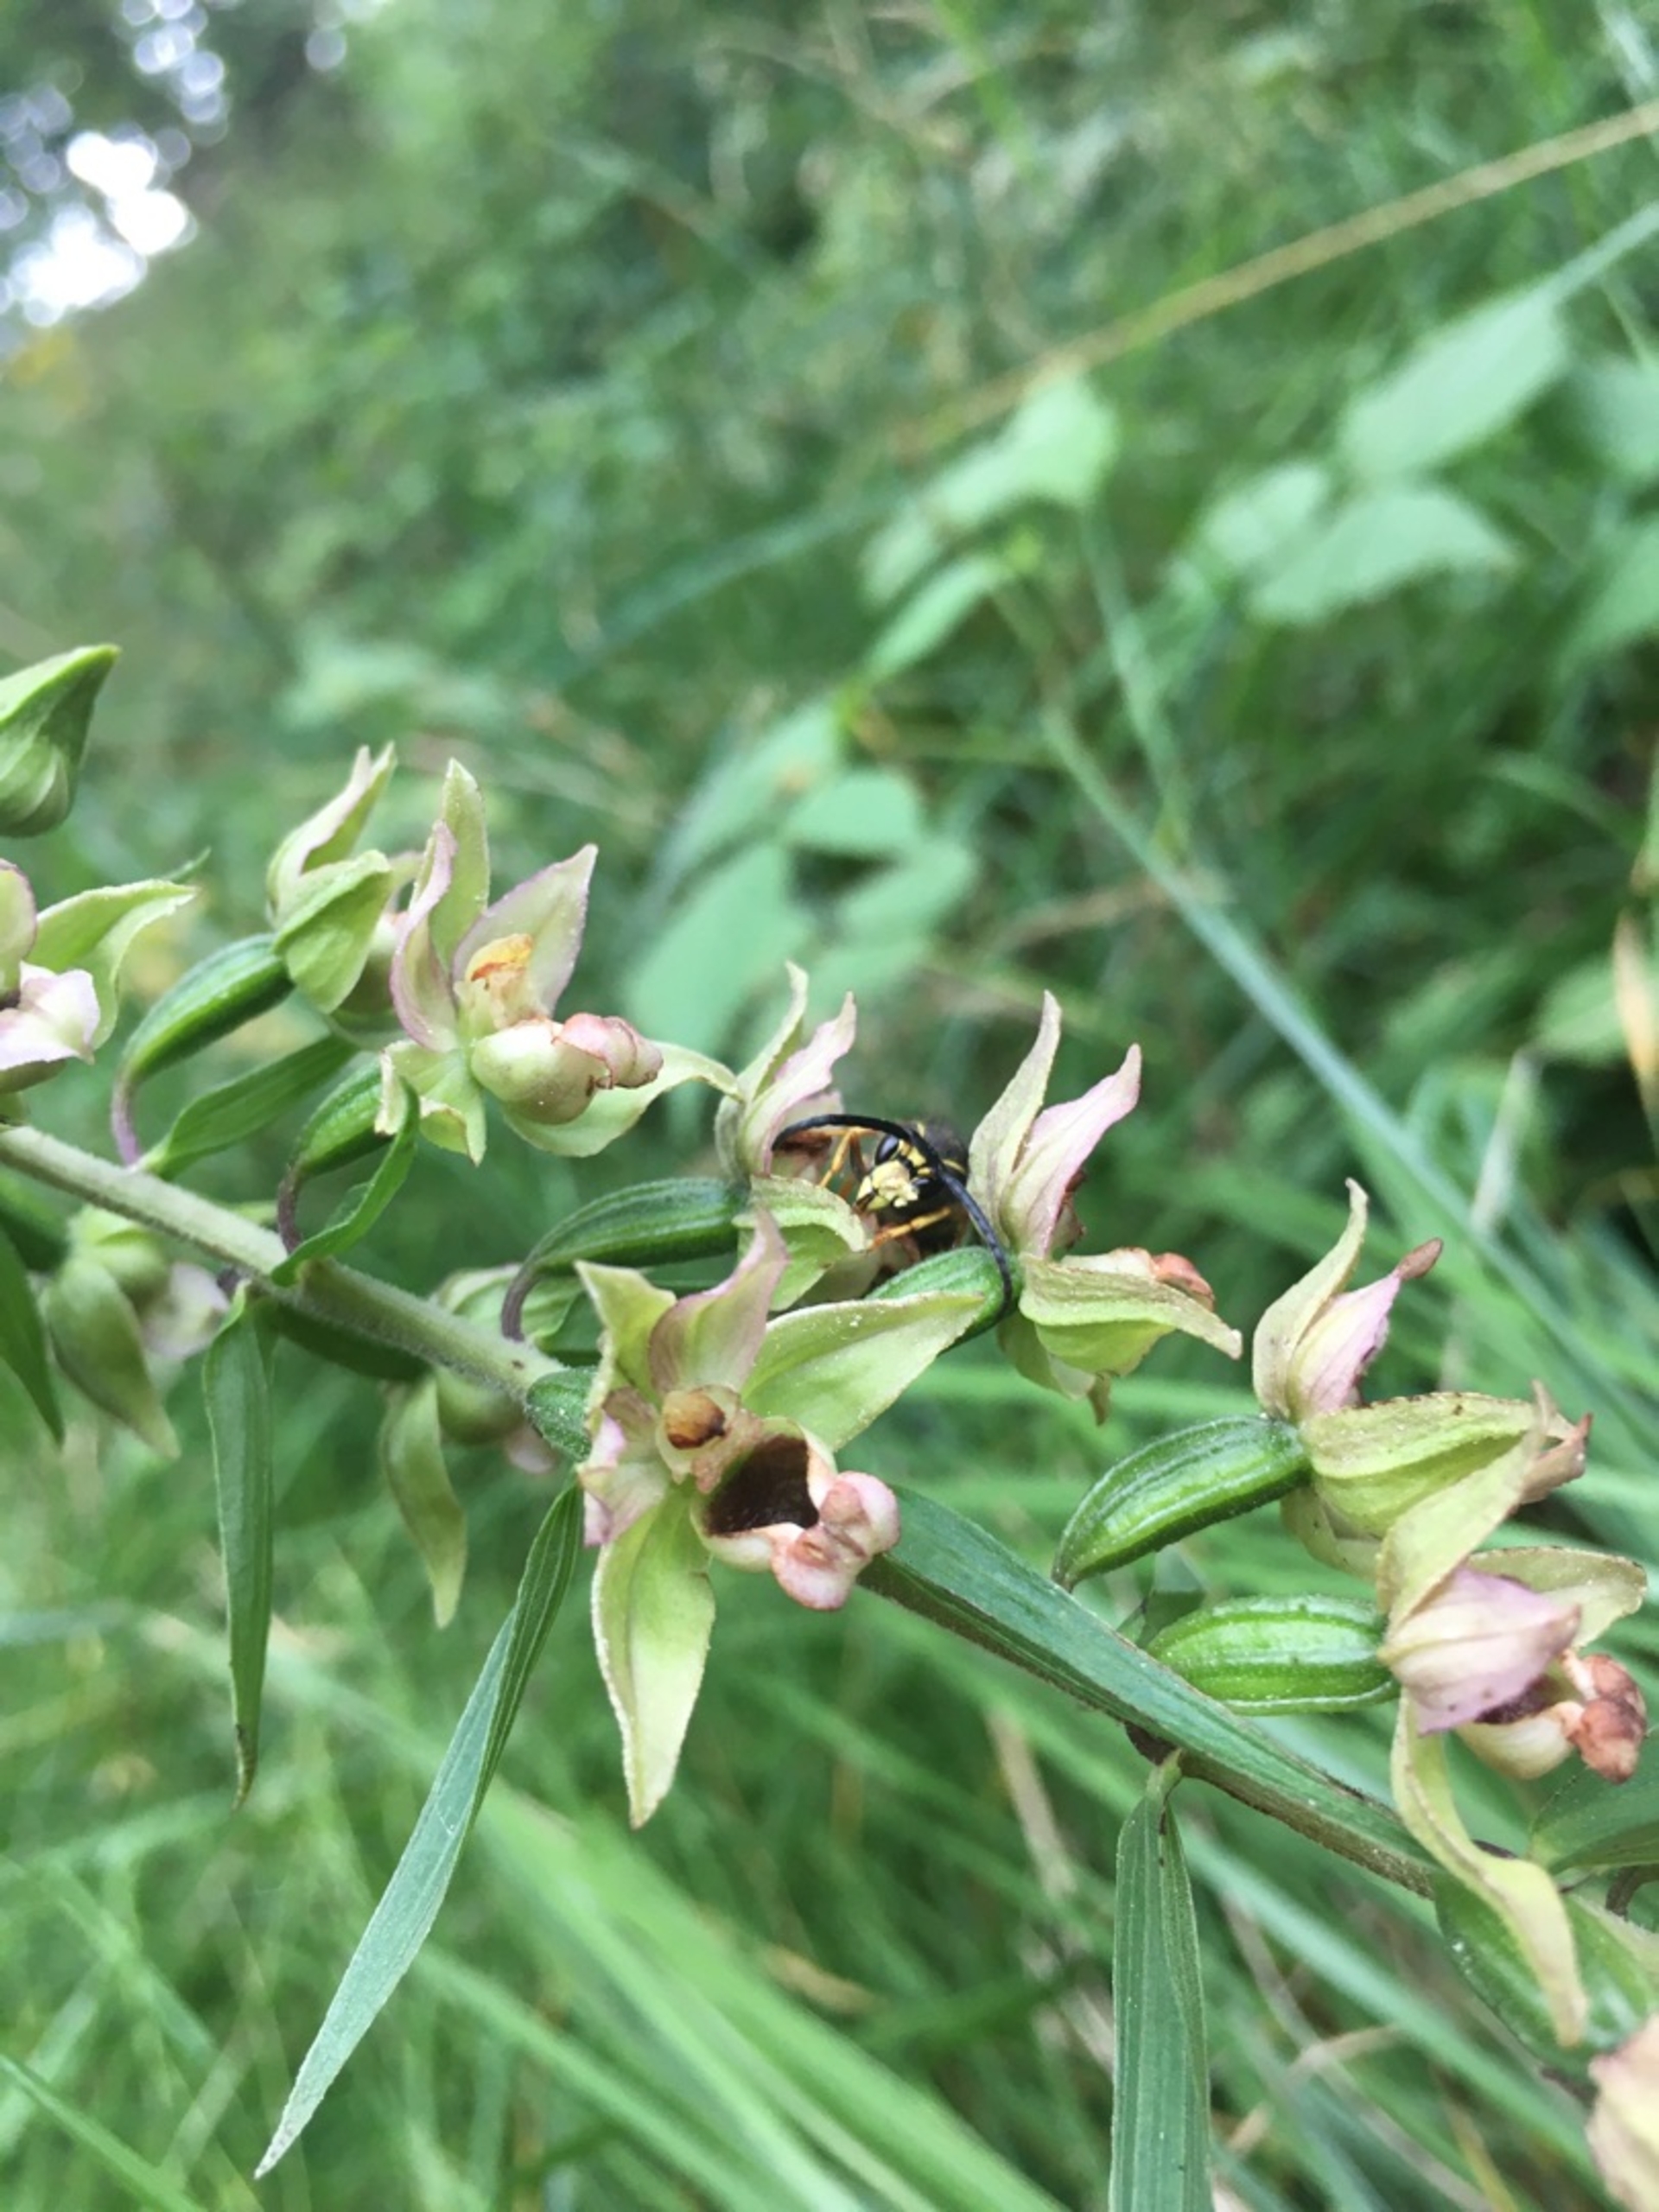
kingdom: Plantae
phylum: Tracheophyta
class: Liliopsida
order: Asparagales
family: Orchidaceae
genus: Epipactis
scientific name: Epipactis helleborine
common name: Skov-hullæbe
